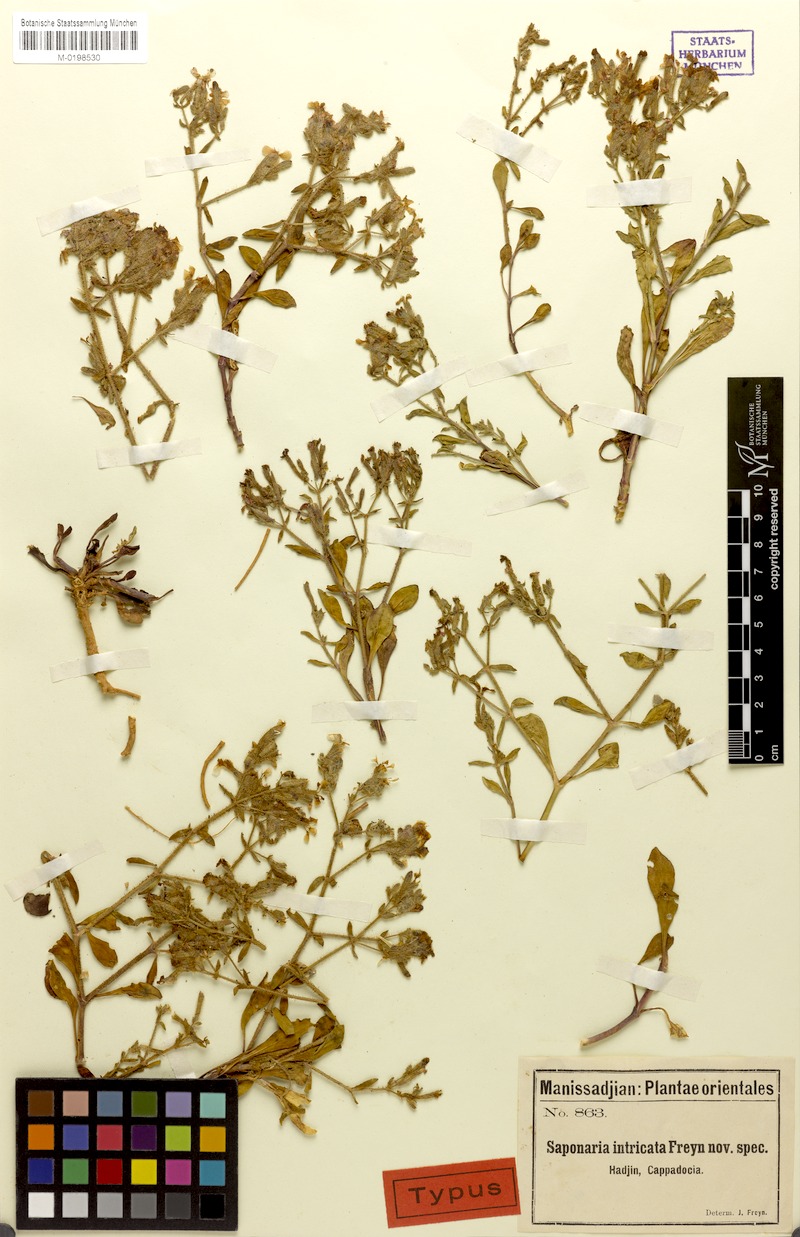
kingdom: Plantae
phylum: Tracheophyta
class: Magnoliopsida
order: Caryophyllales
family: Caryophyllaceae
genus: Saponaria
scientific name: Saponaria kotschyi
